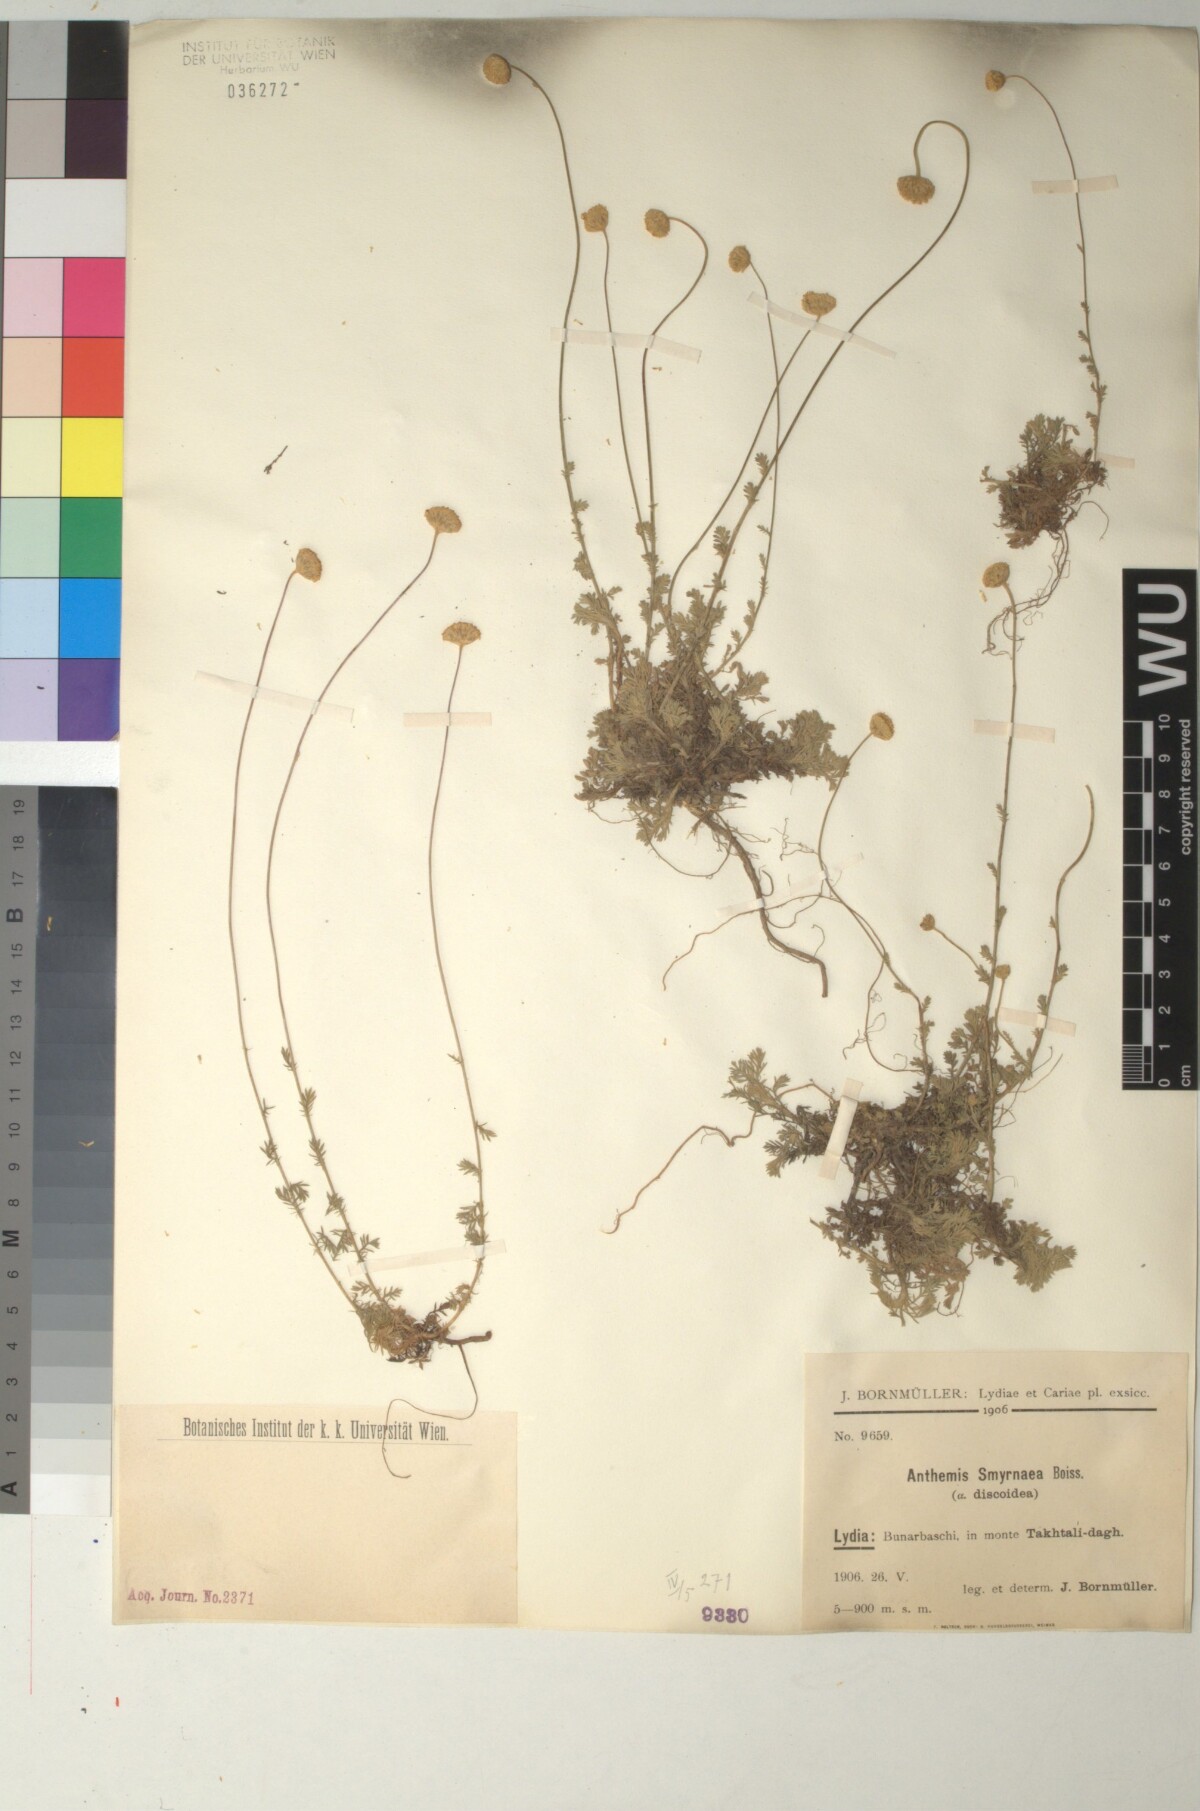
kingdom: Plantae
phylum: Tracheophyta
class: Magnoliopsida
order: Asterales
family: Asteraceae
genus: Anthemis
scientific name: Anthemis cretica
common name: Mountain dog-daisy
